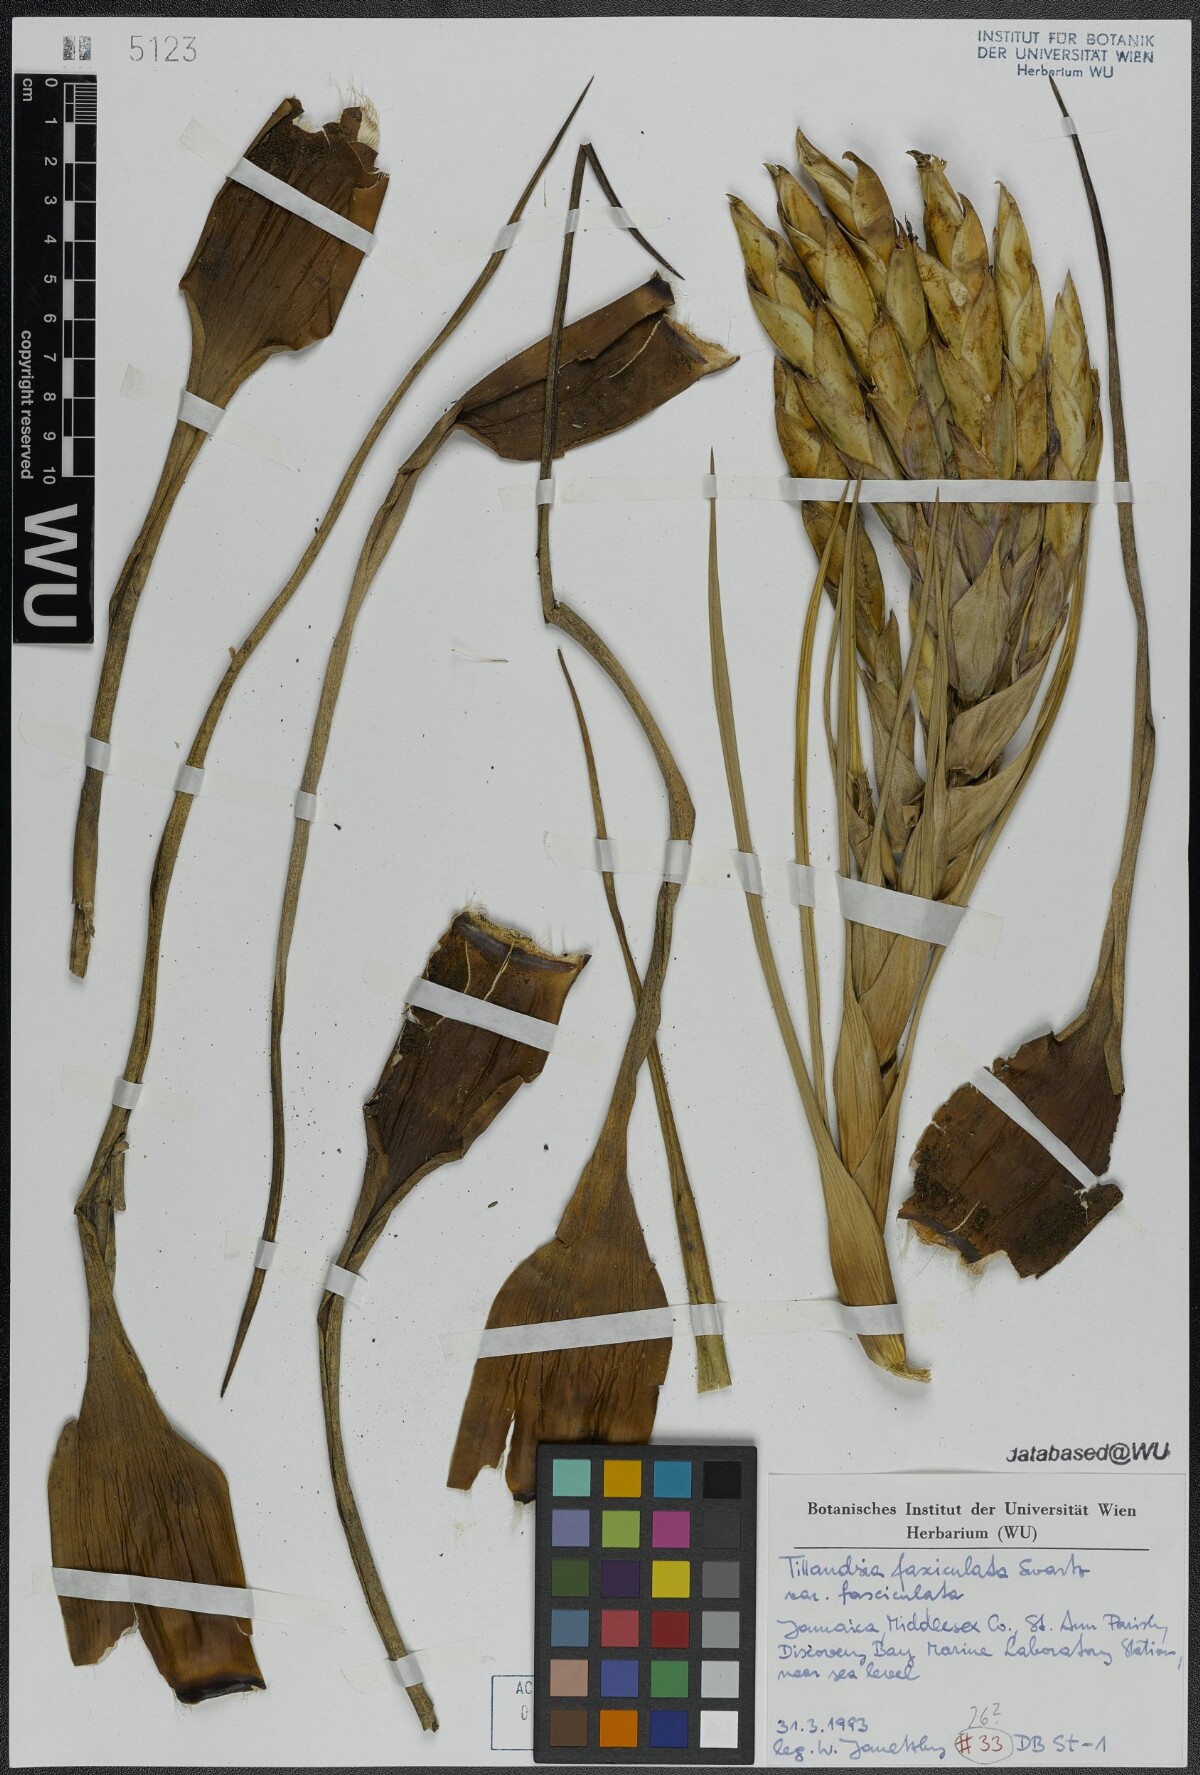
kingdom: Plantae
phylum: Tracheophyta
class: Liliopsida
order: Poales
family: Bromeliaceae
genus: Tillandsia
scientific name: Tillandsia fasciculata
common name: Giant airplant
